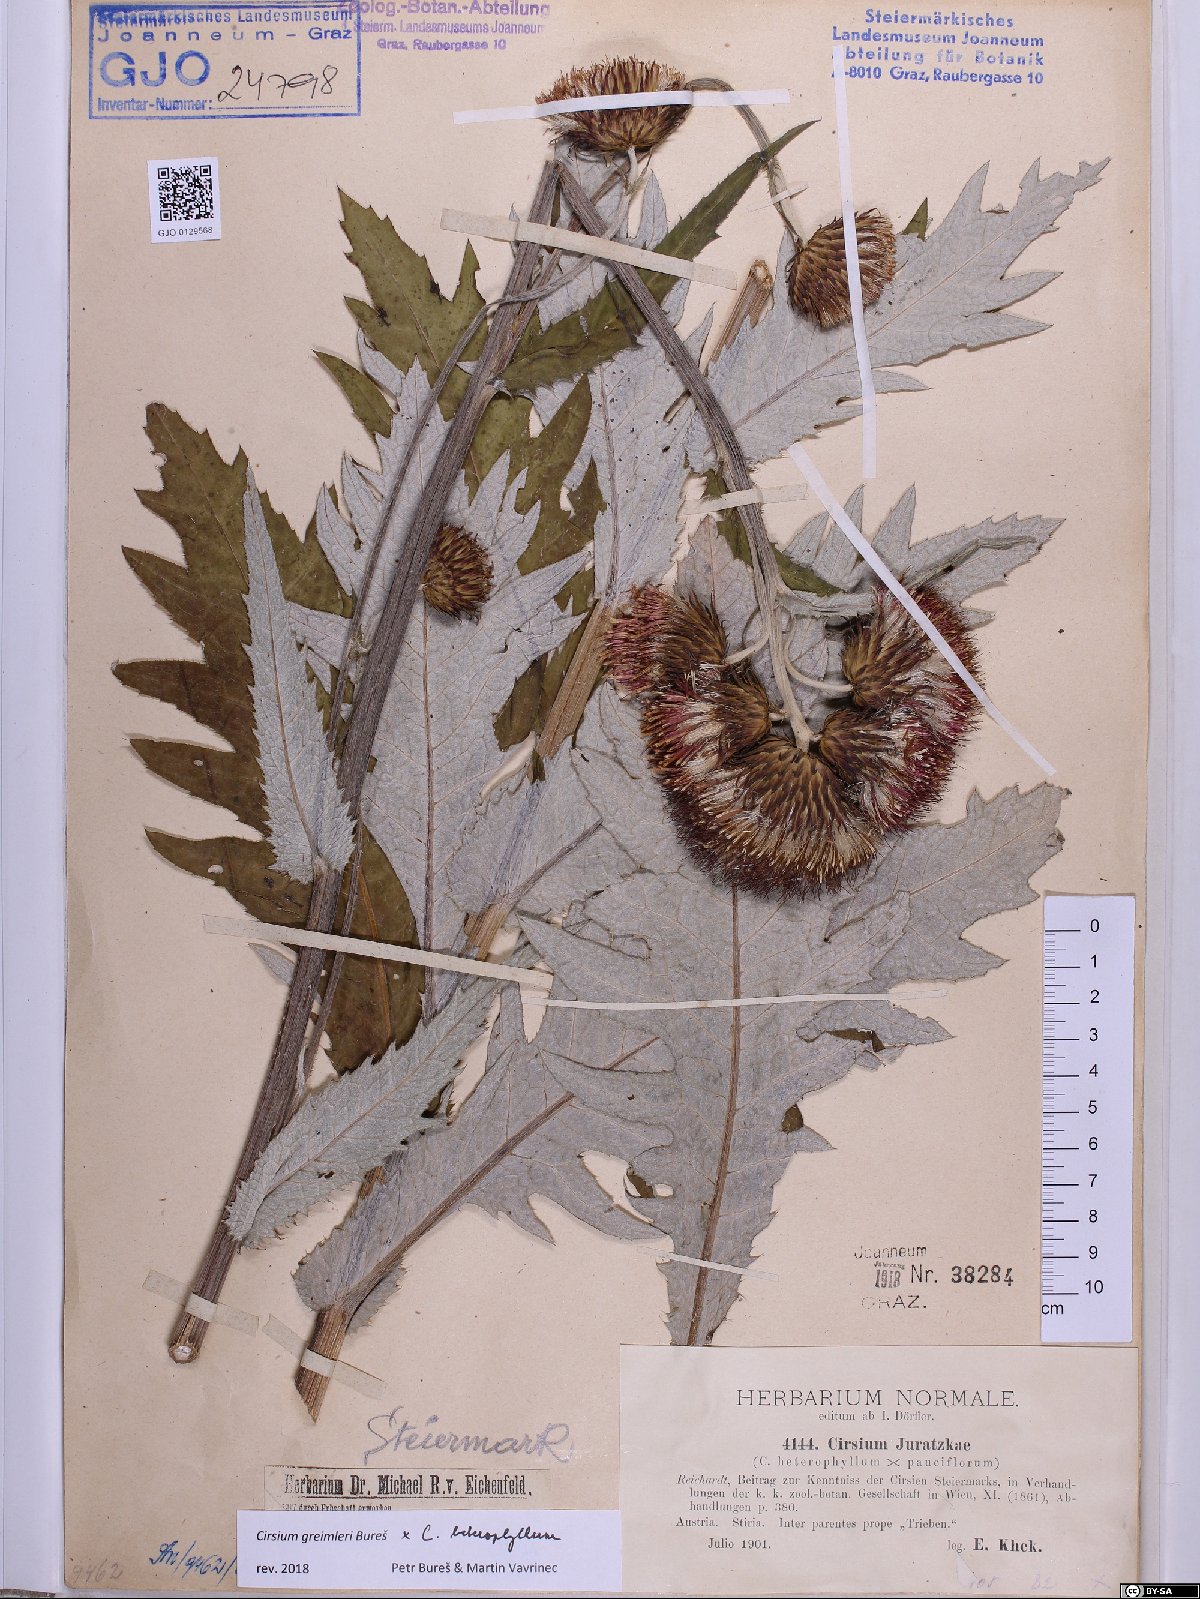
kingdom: Plantae
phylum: Tracheophyta
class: Magnoliopsida
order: Asterales
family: Asteraceae
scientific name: Asteraceae
